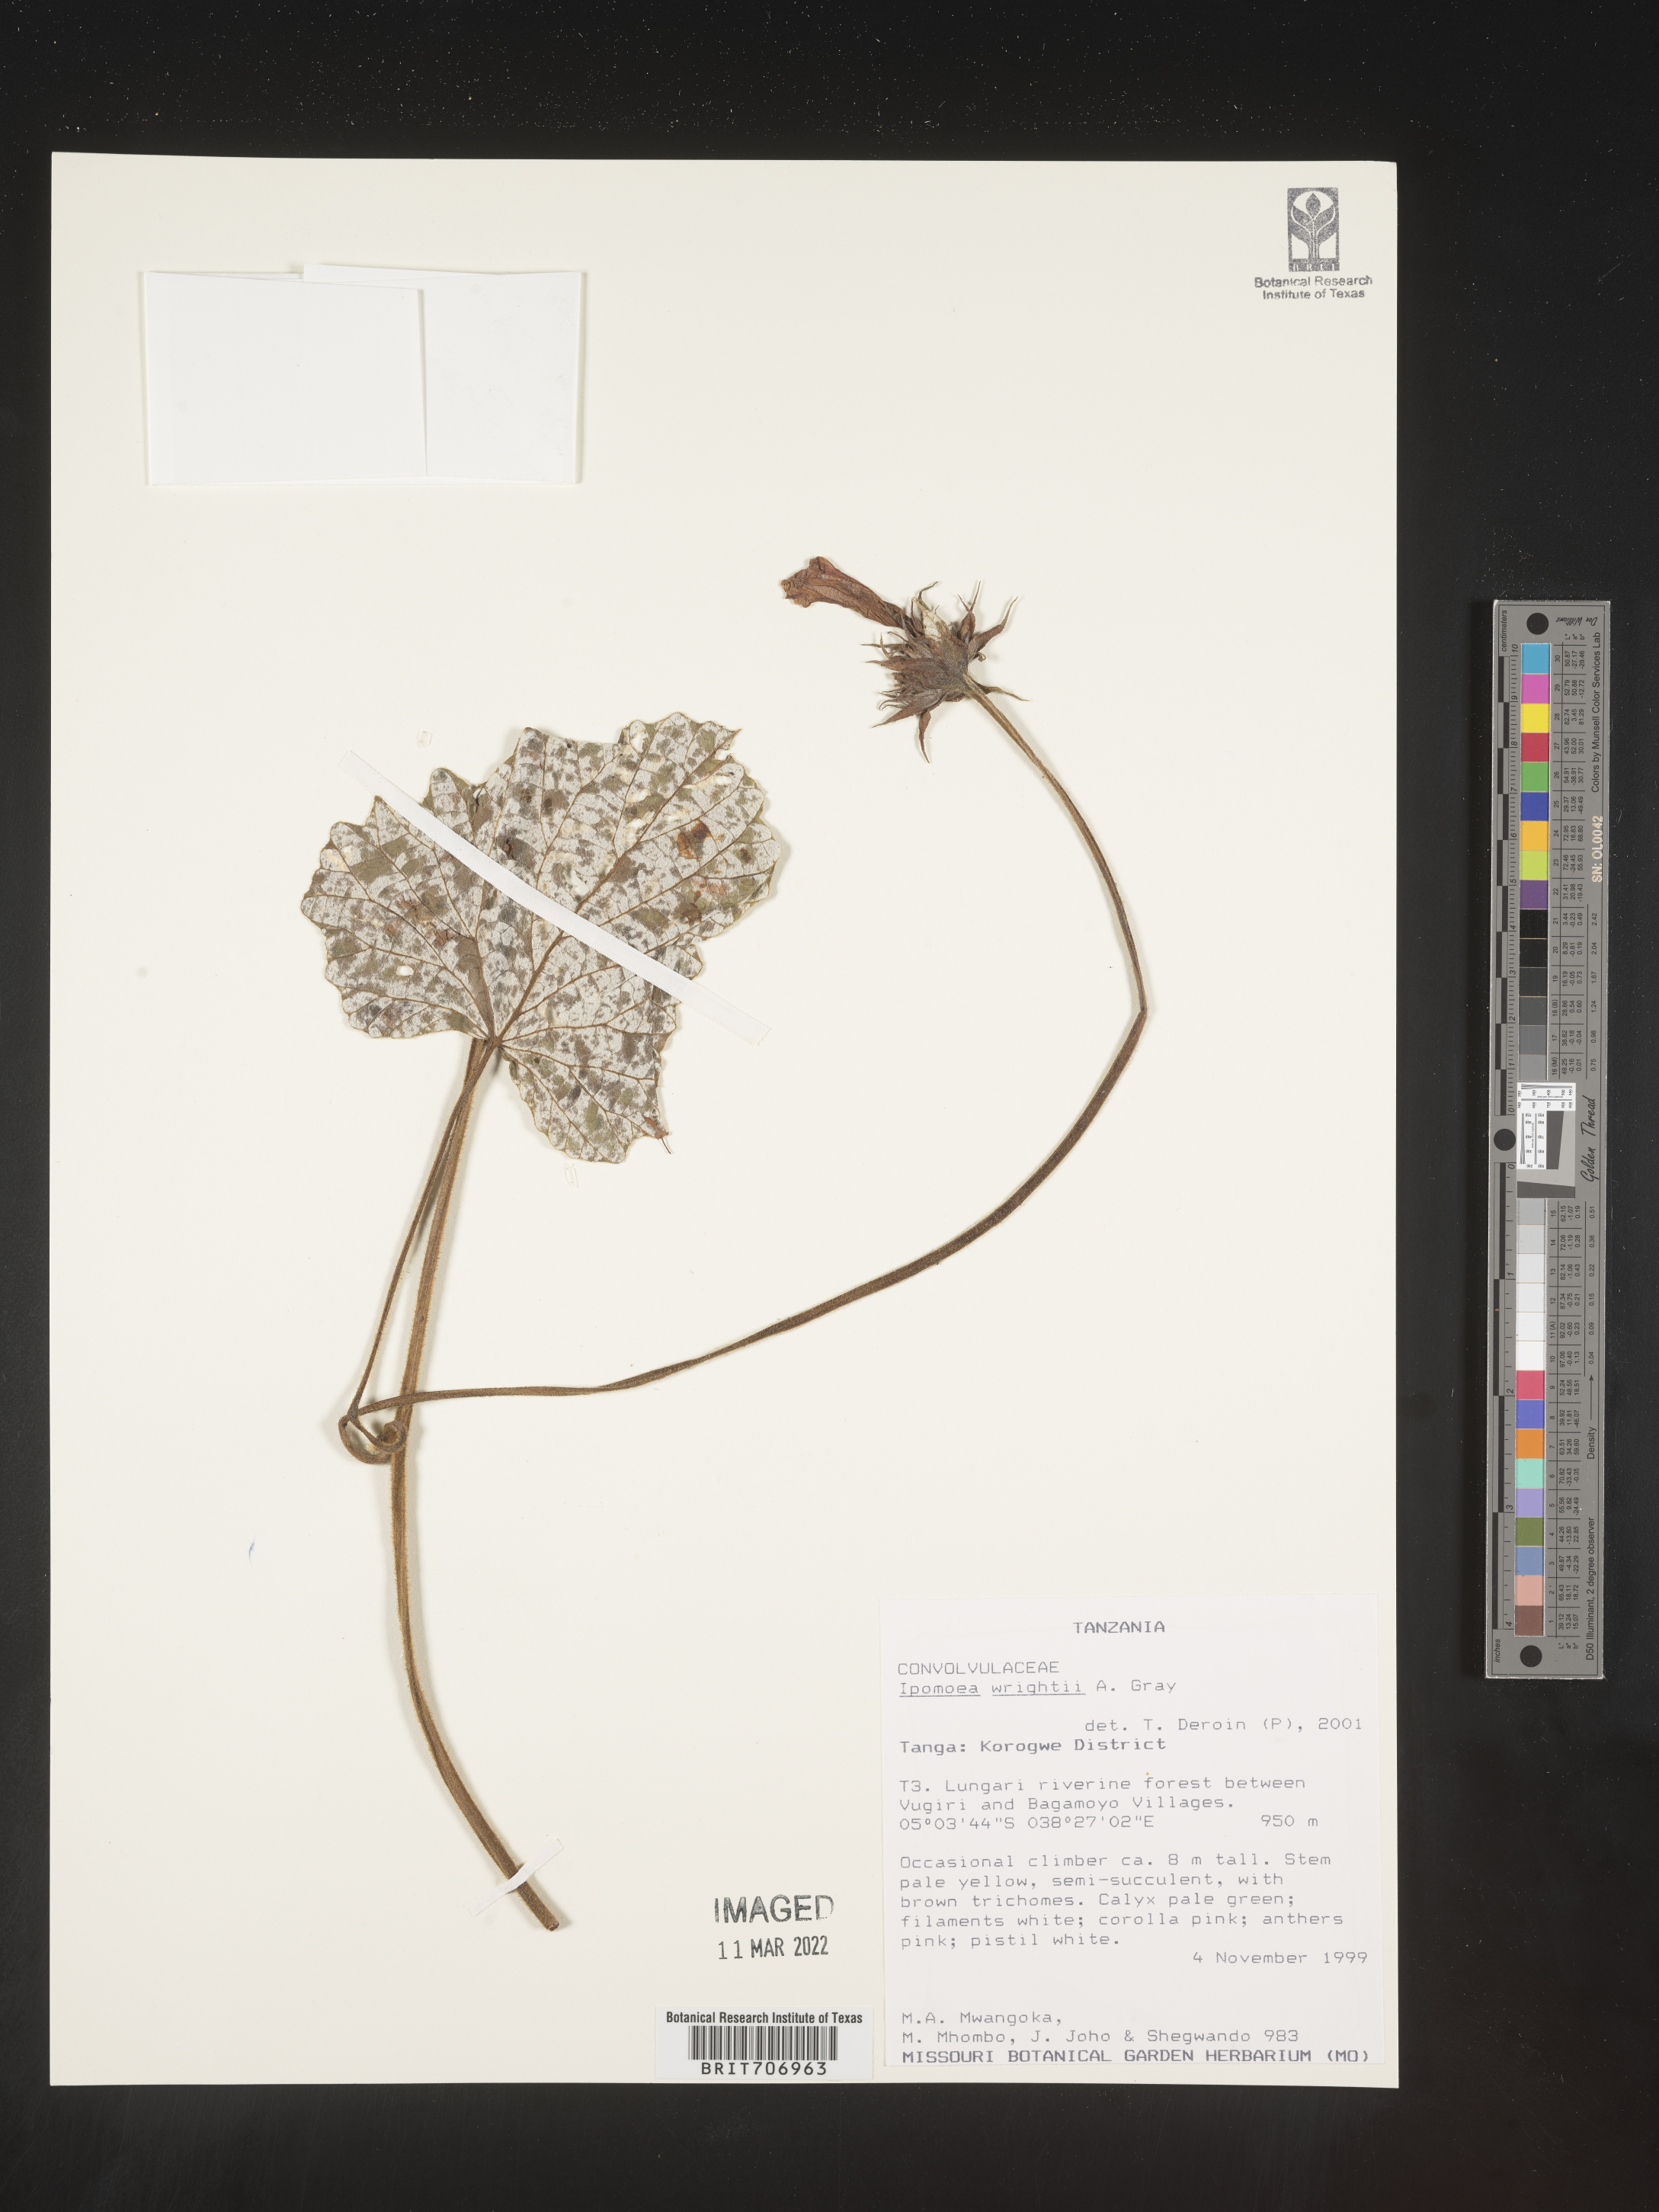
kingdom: Plantae
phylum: Tracheophyta
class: Magnoliopsida
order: Solanales
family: Convolvulaceae
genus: Ipomoea
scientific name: Ipomoea
